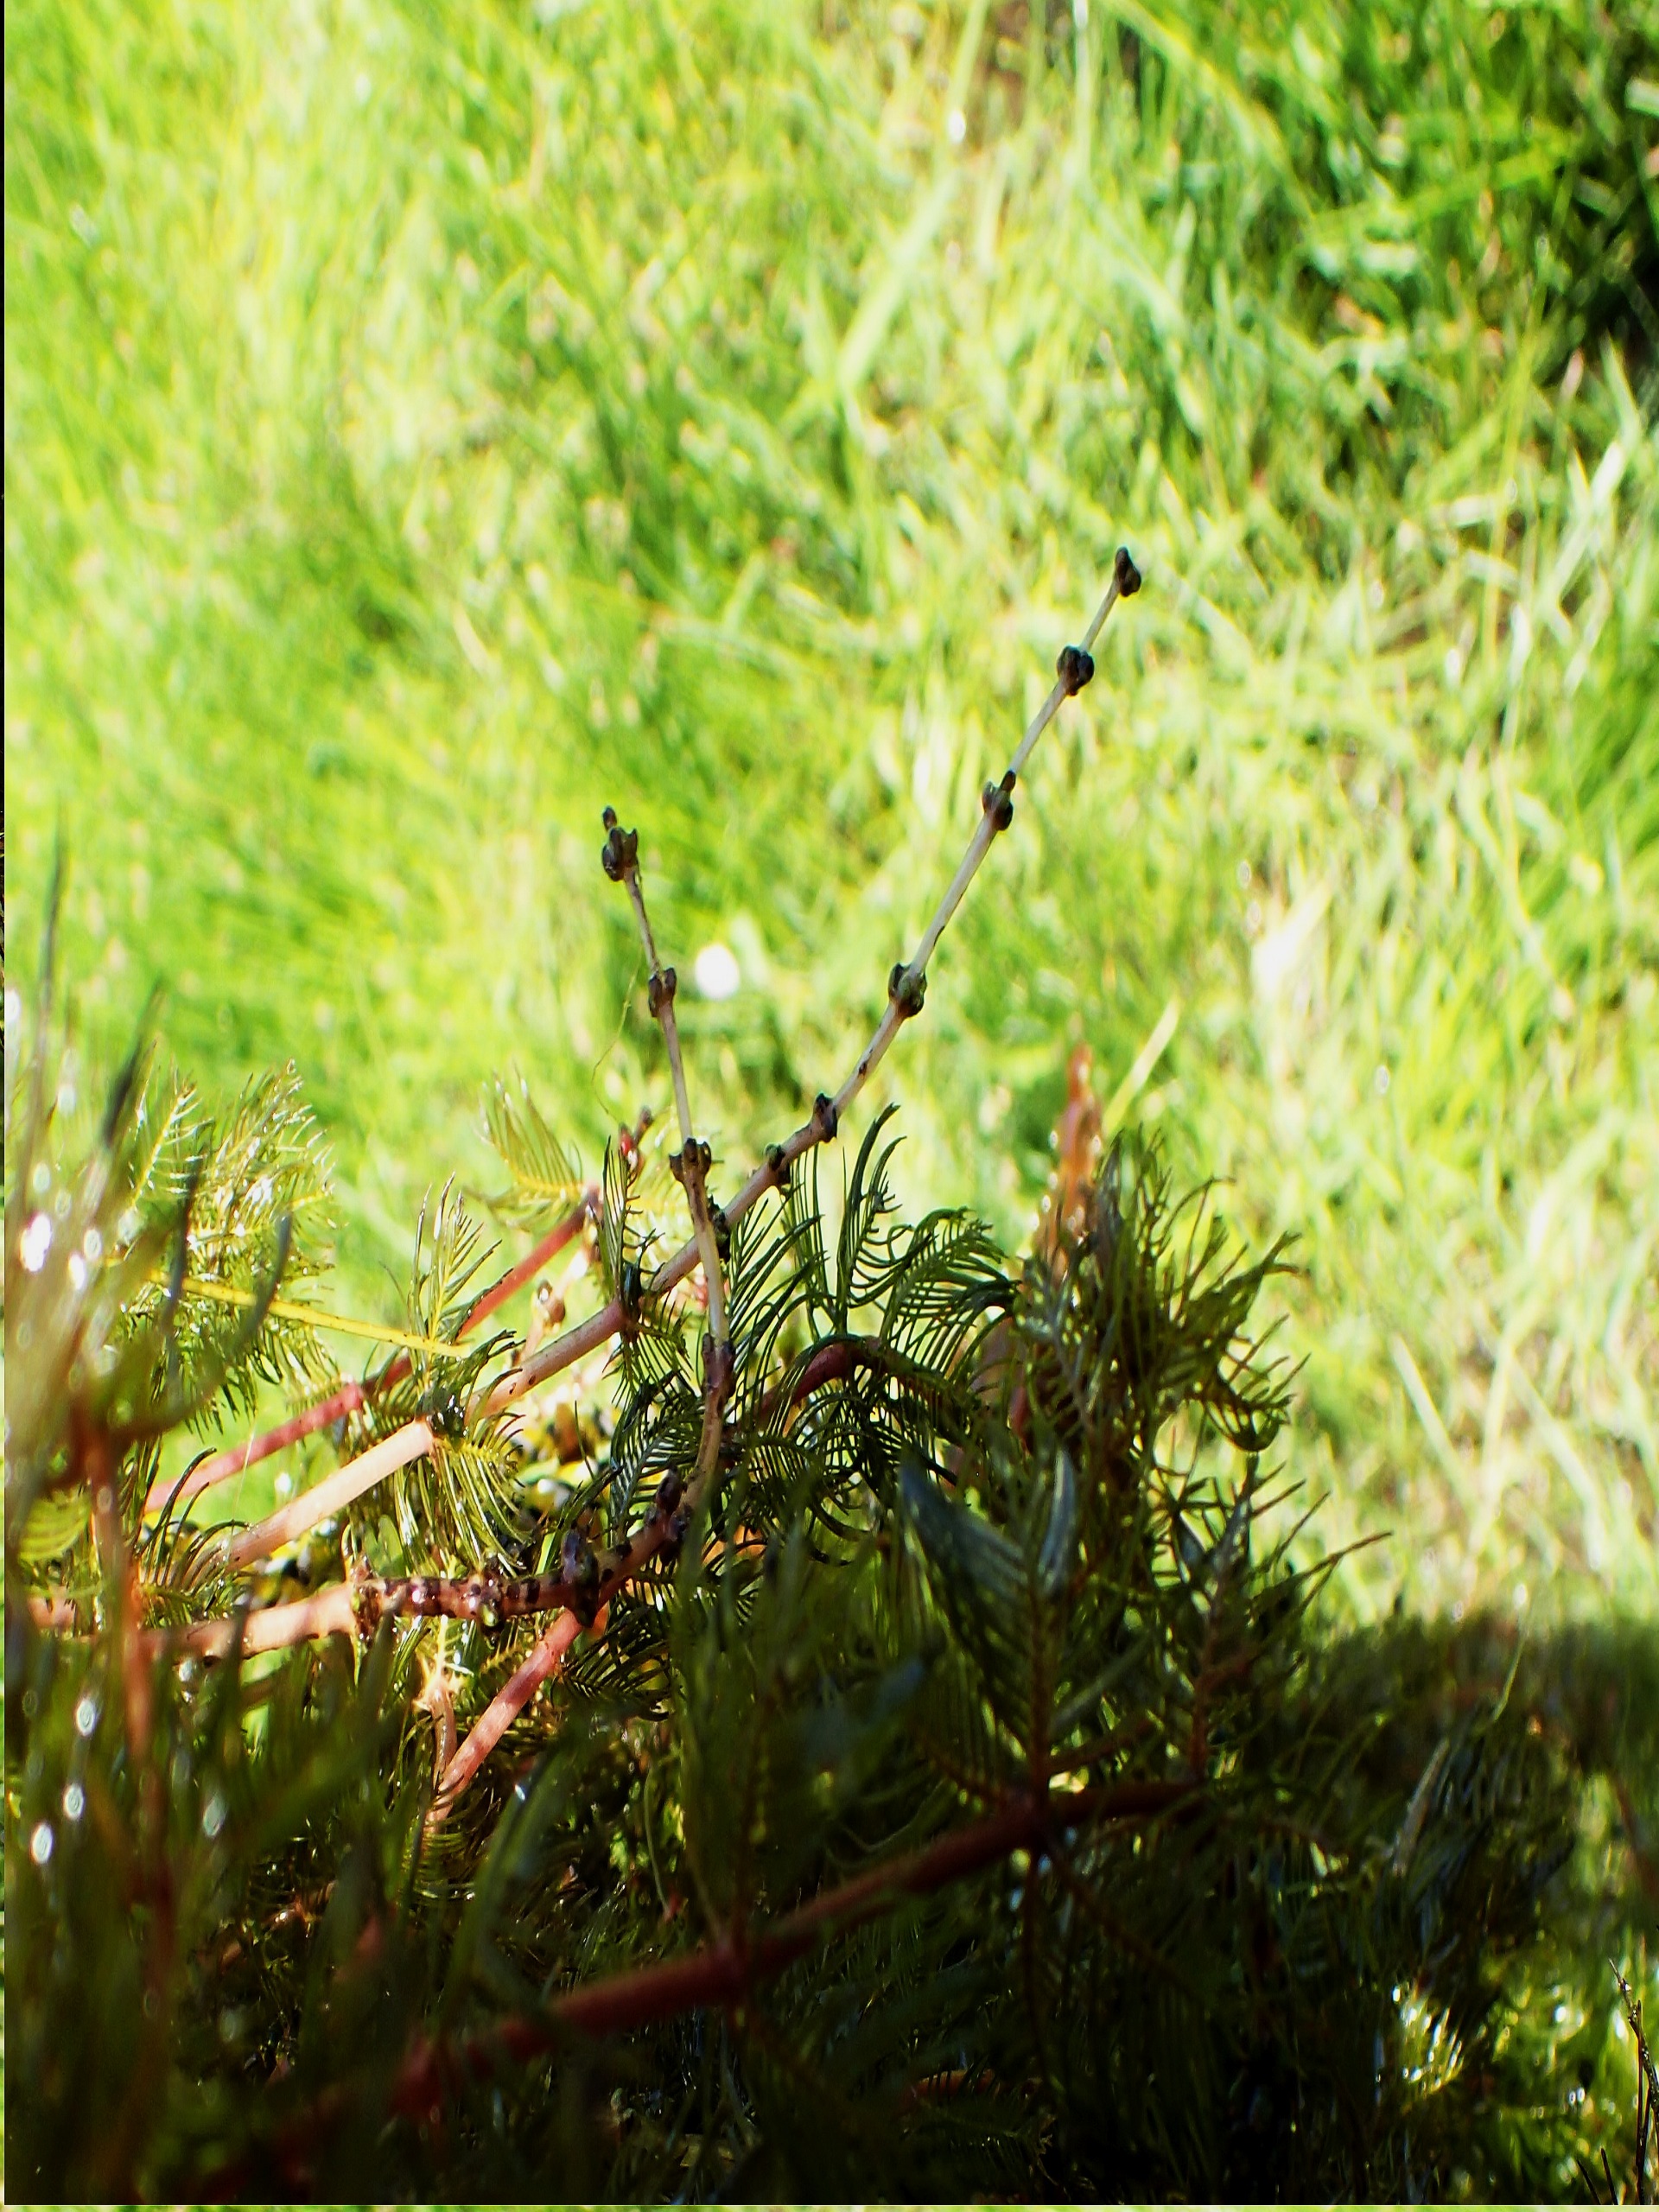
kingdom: Plantae
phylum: Tracheophyta
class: Magnoliopsida
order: Saxifragales
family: Haloragaceae
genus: Myriophyllum
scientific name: Myriophyllum spicatum
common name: Aks-tusindblad
